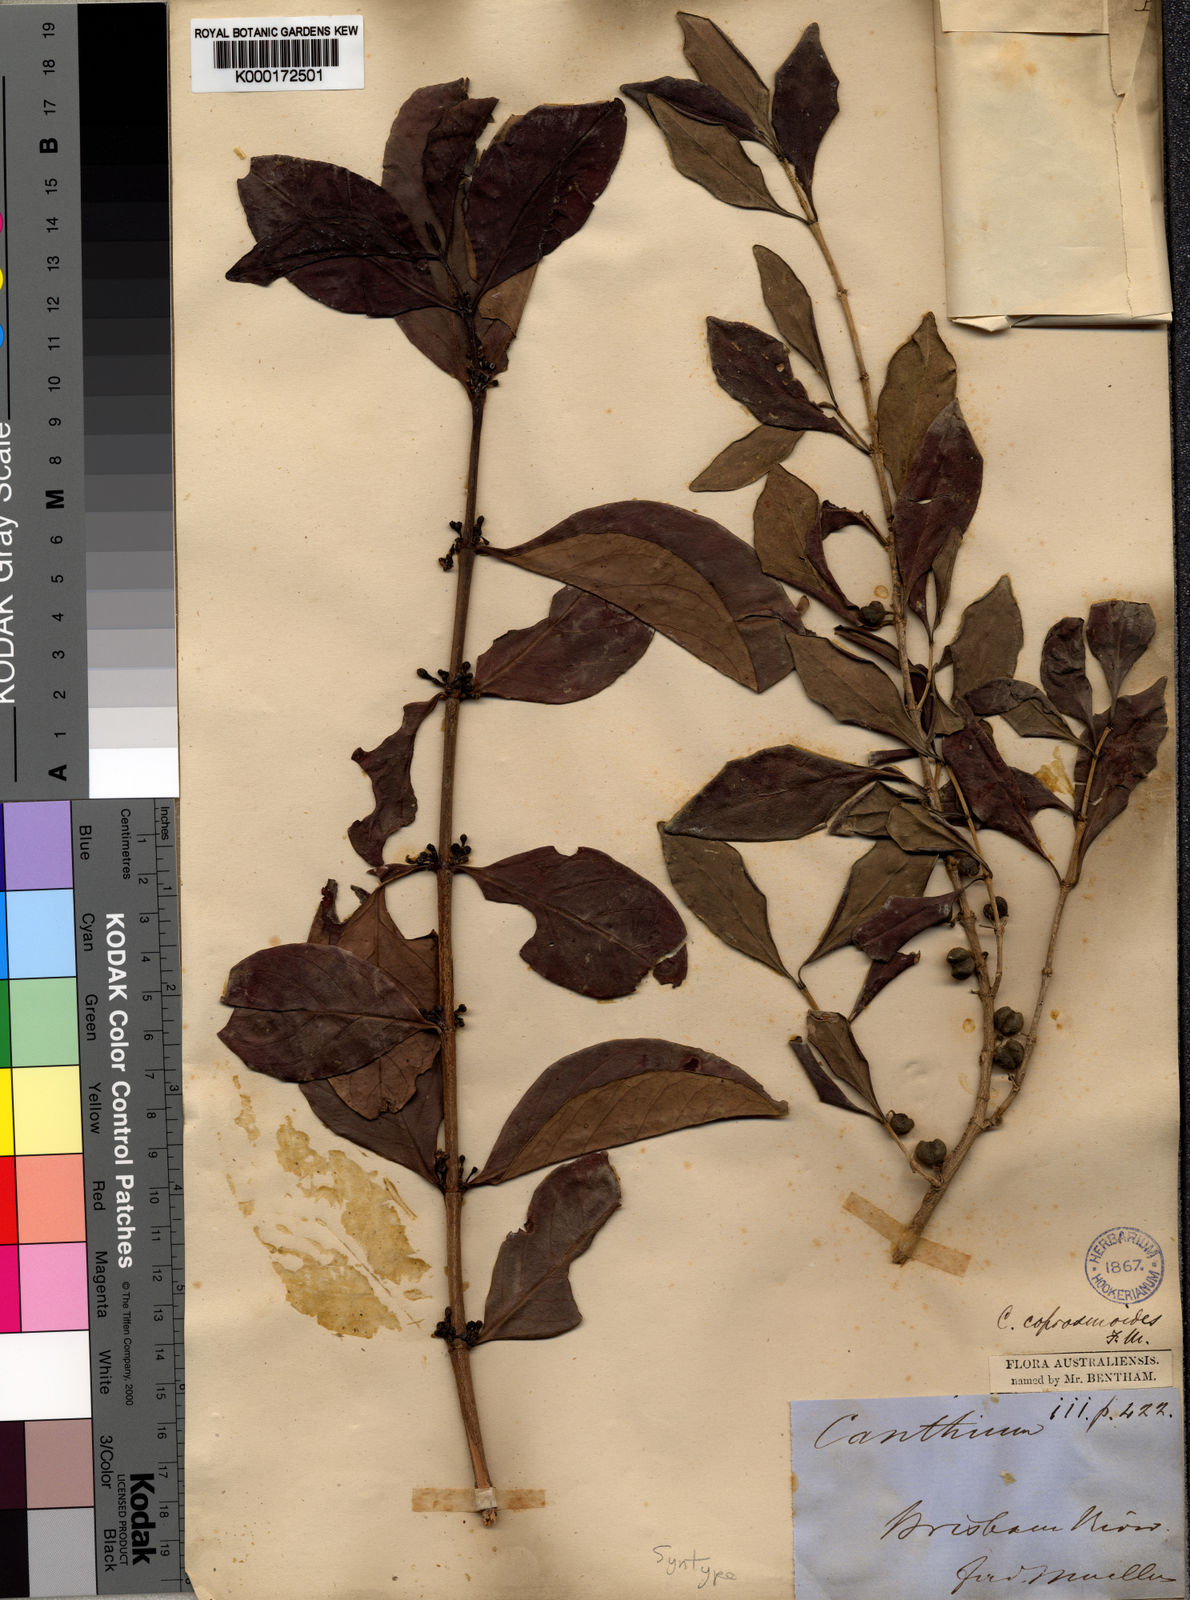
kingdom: Plantae
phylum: Tracheophyta
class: Magnoliopsida
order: Gentianales
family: Rubiaceae
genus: Cyclophyllum
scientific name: Cyclophyllum coprosmoides
